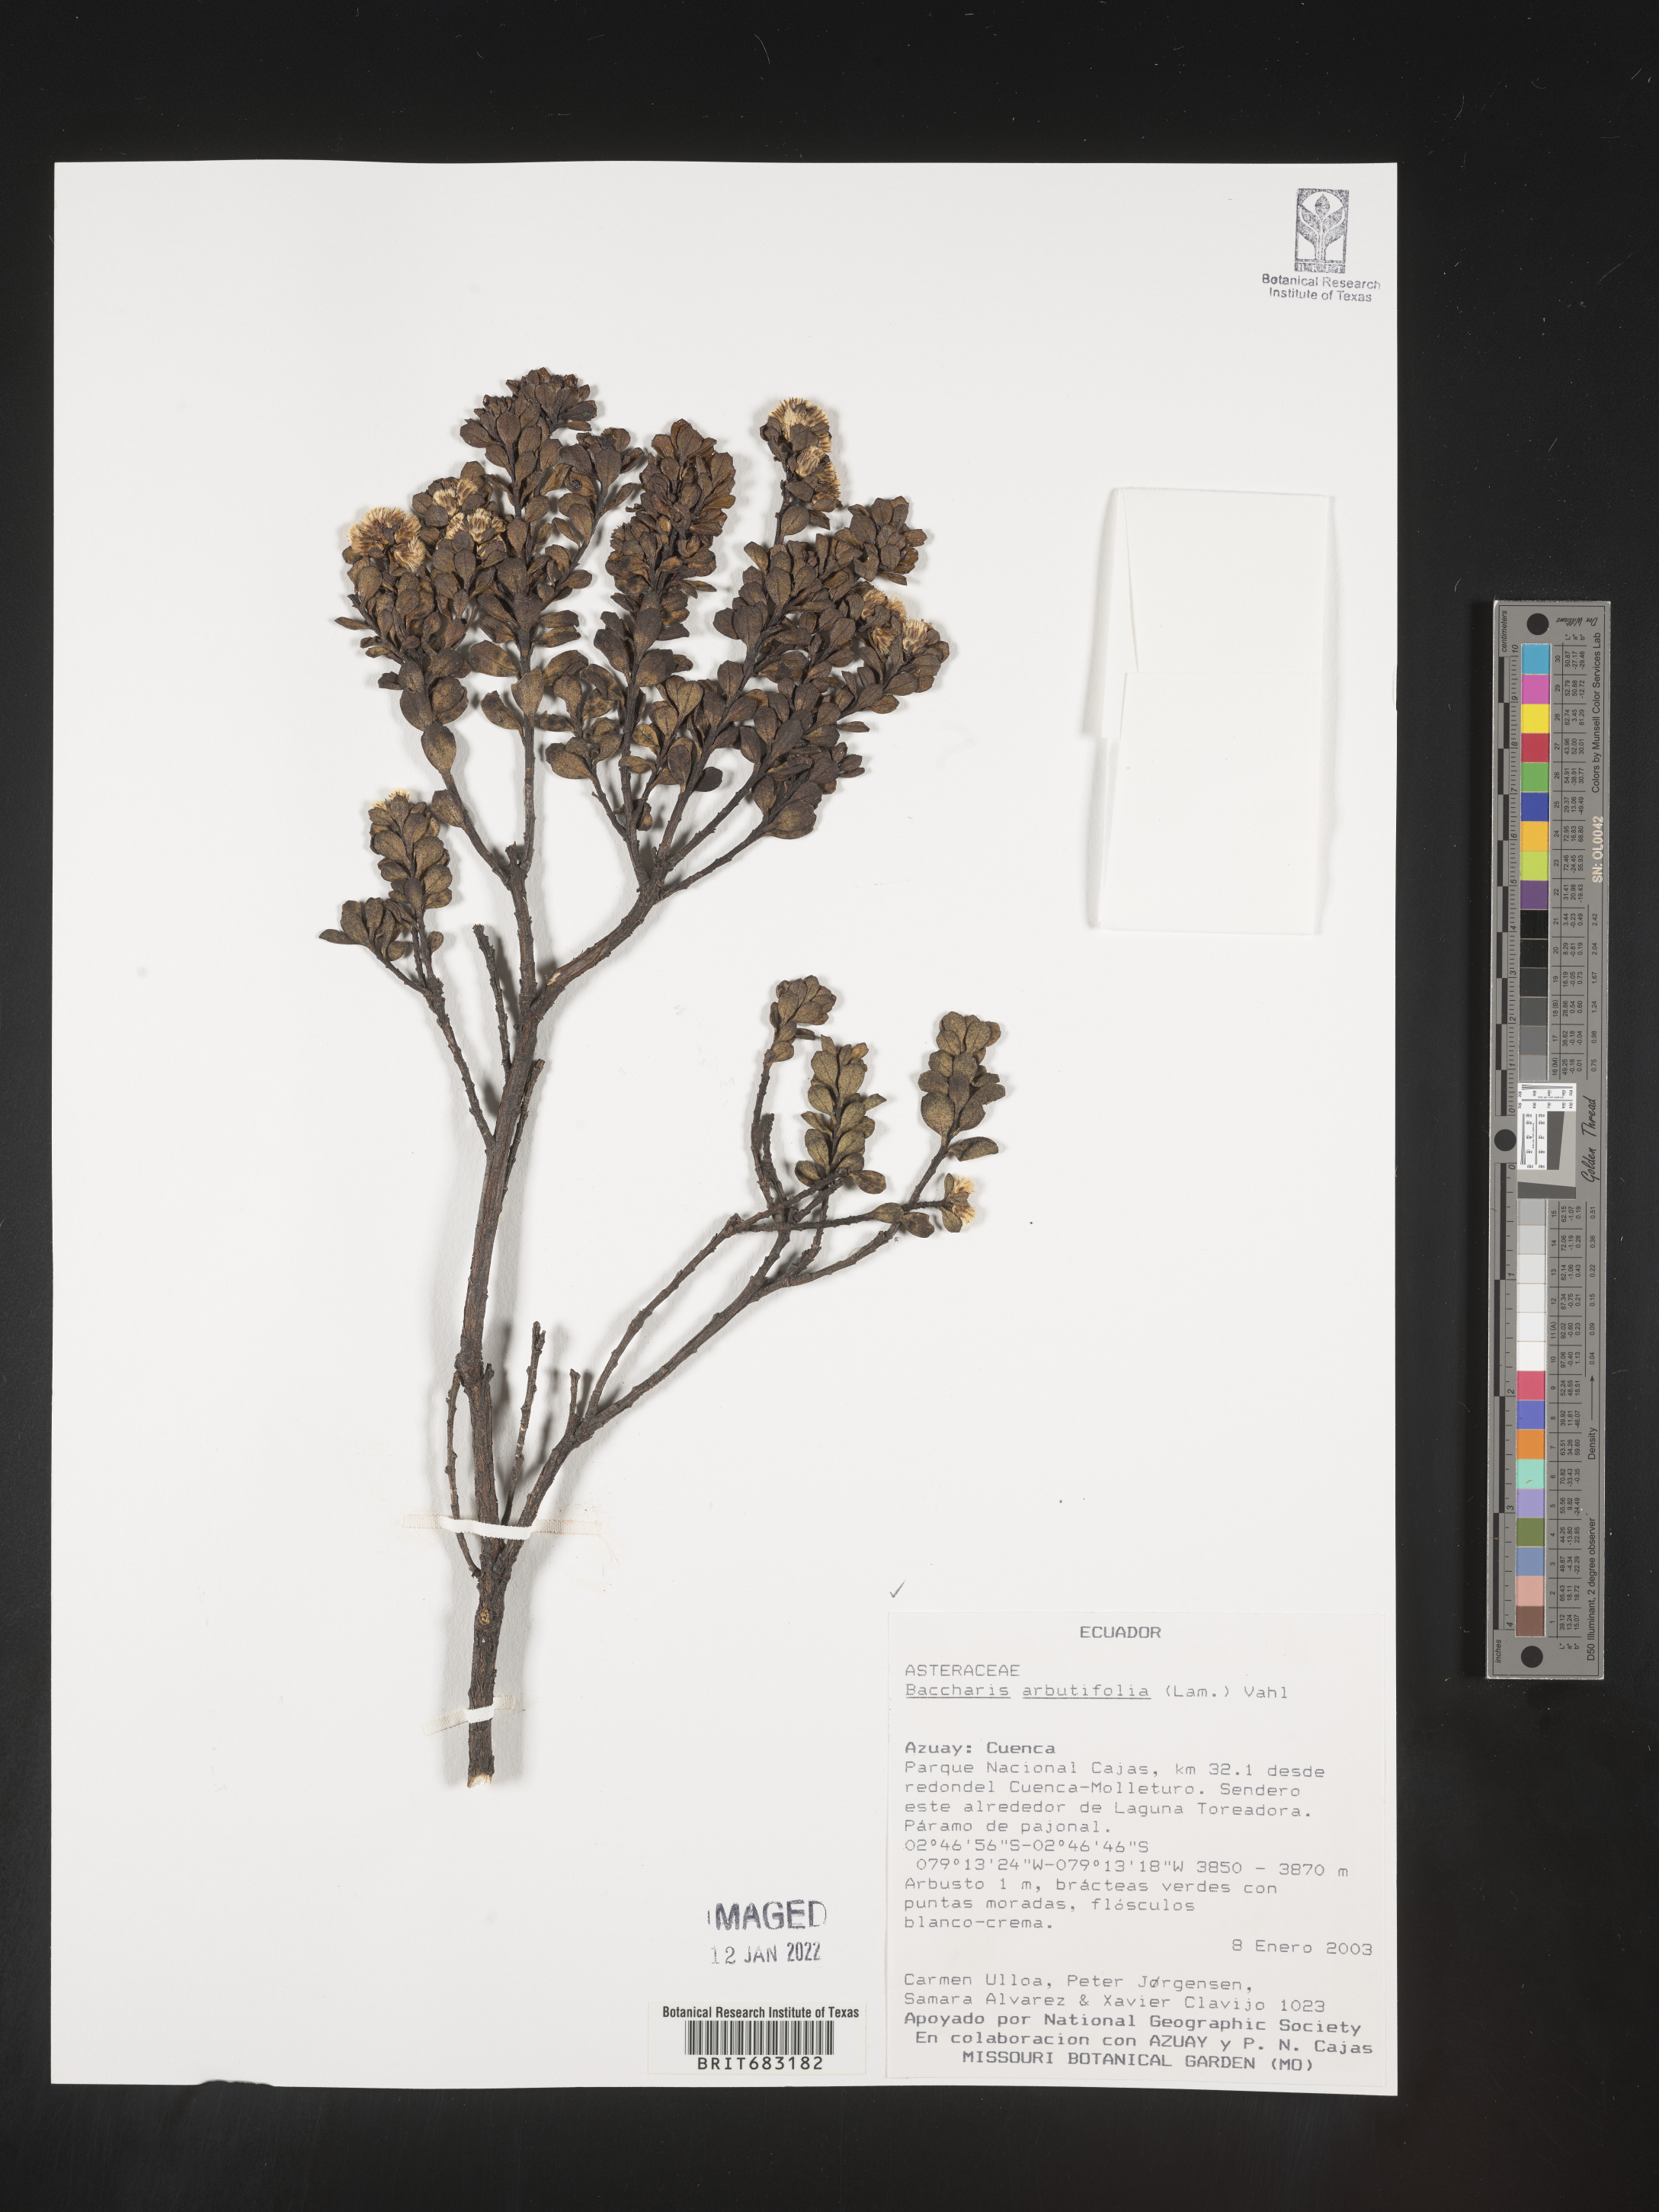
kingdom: Plantae
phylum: Tracheophyta
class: Magnoliopsida
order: Asterales
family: Asteraceae
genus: Baccharis
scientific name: Baccharis
